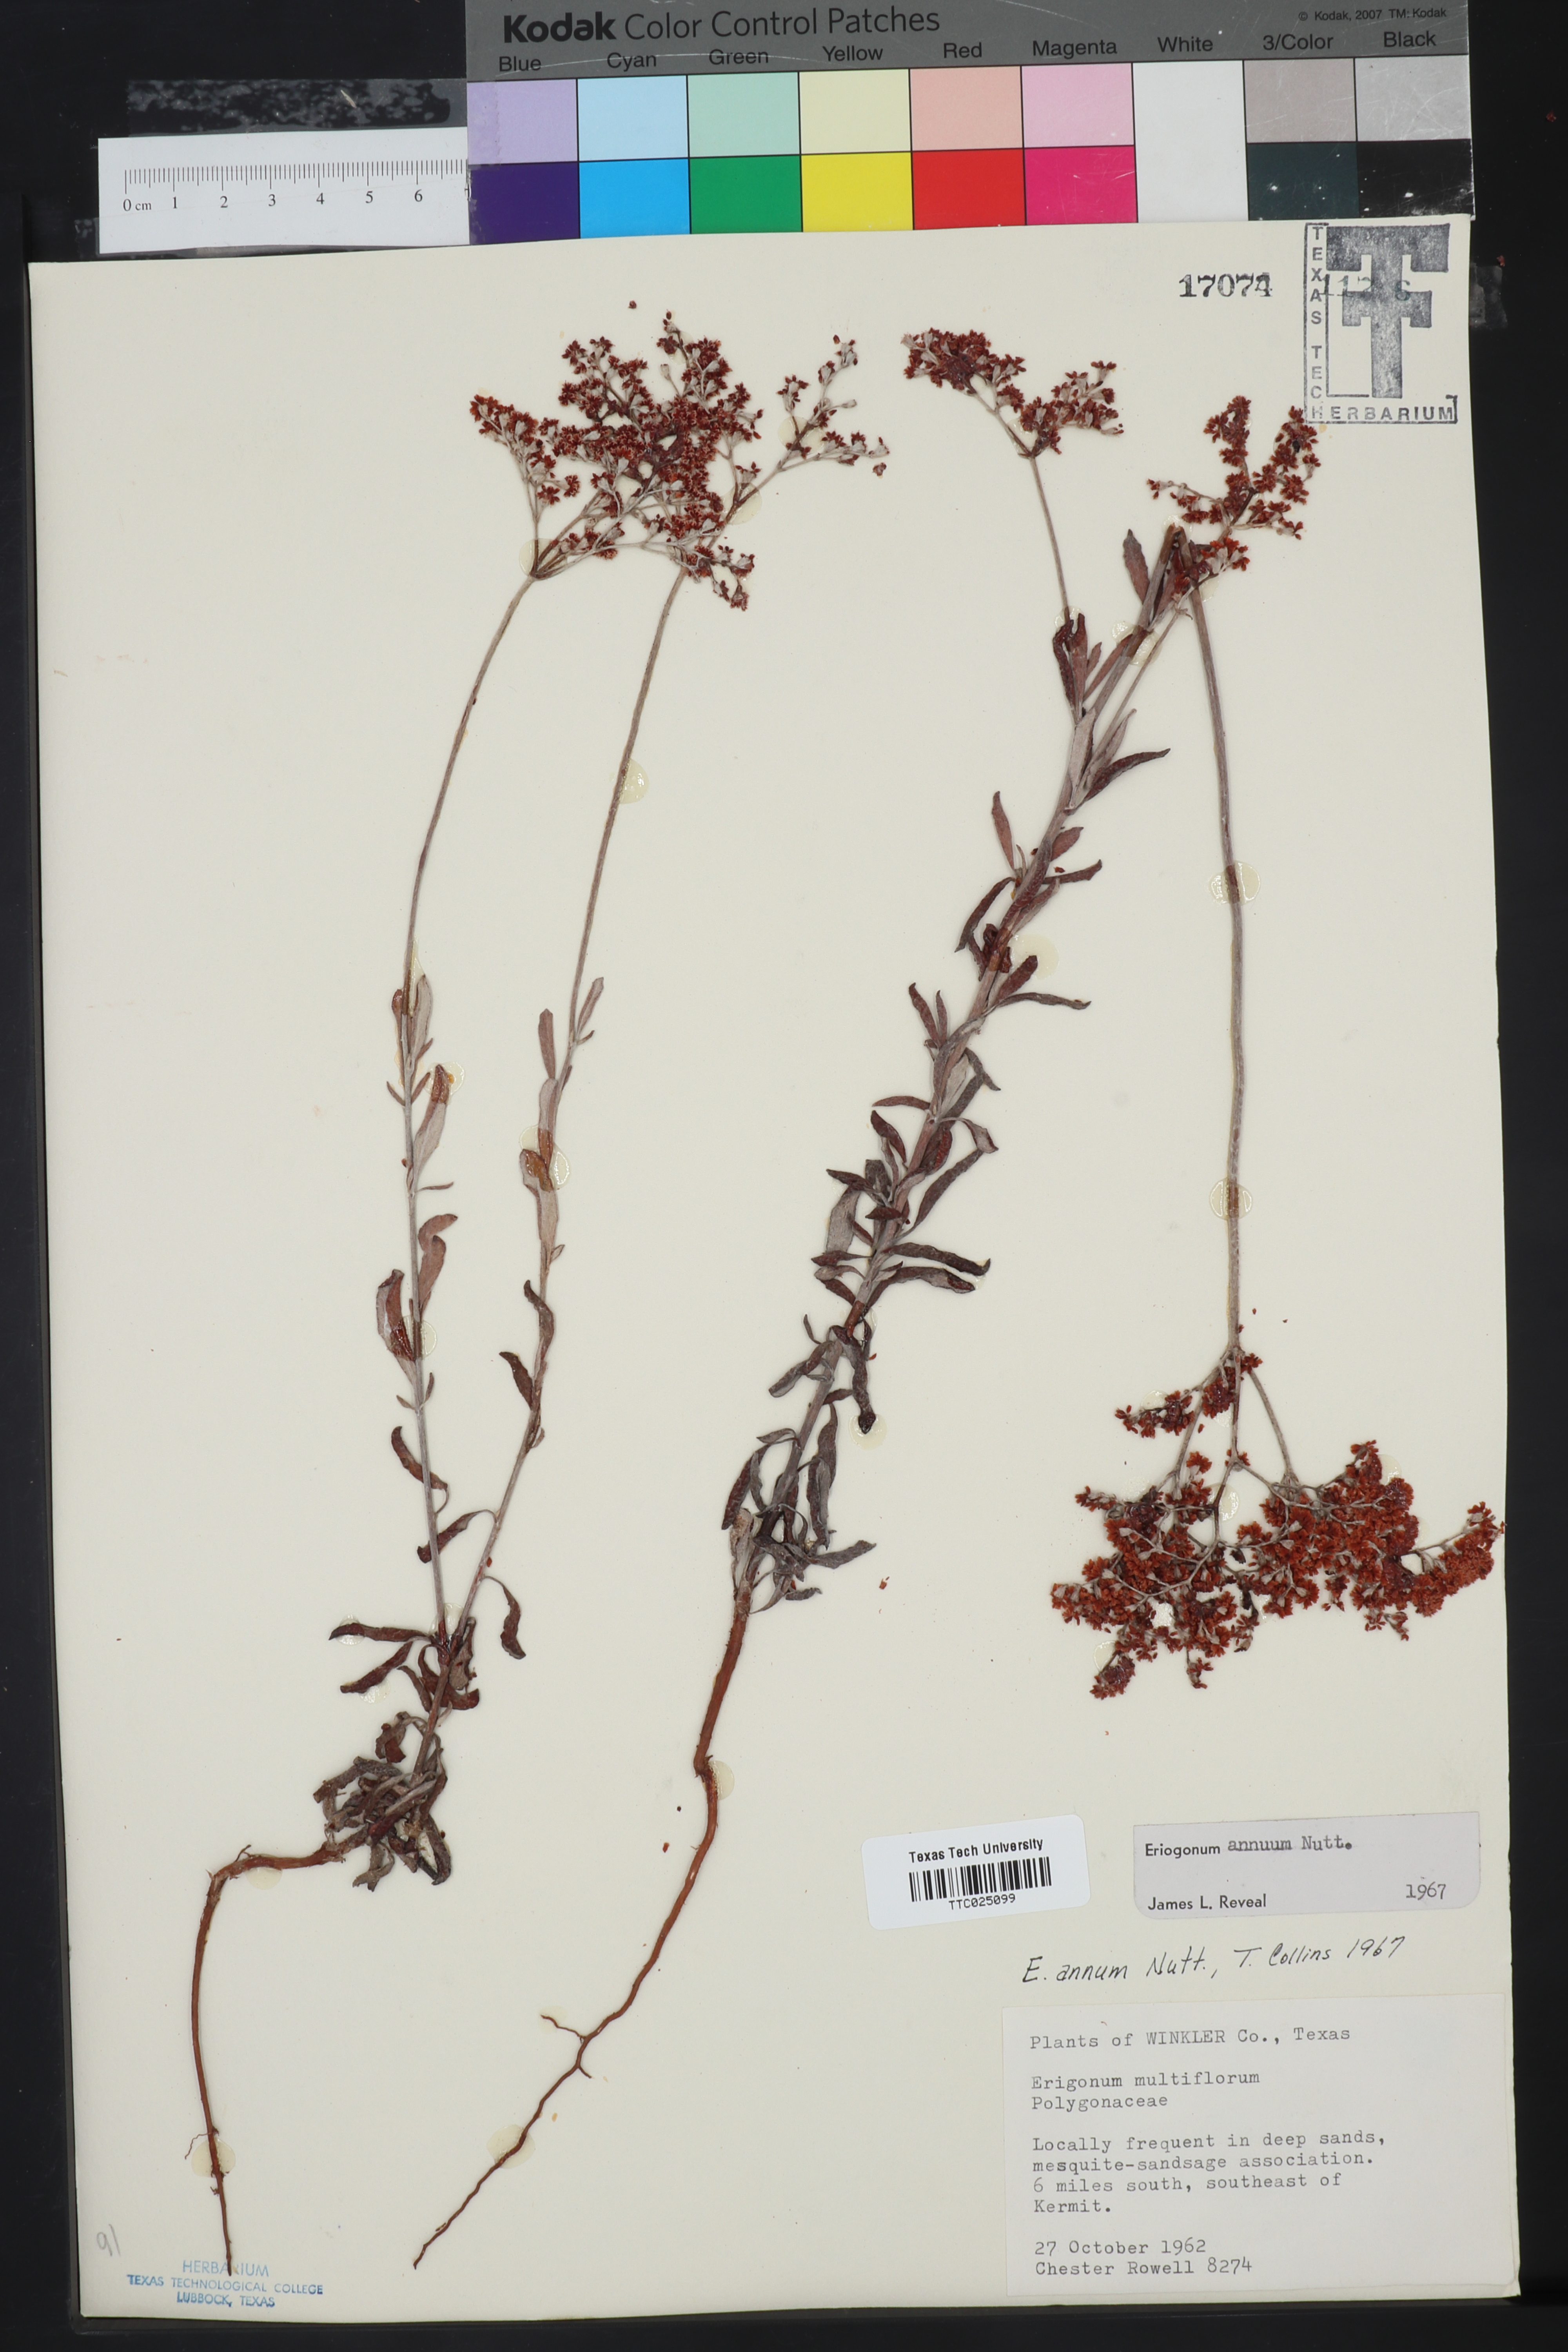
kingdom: Plantae
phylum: Tracheophyta
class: Magnoliopsida
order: Caryophyllales
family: Polygonaceae
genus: Eriogonum
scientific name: Eriogonum annuum
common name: Annual wild buckwheat
